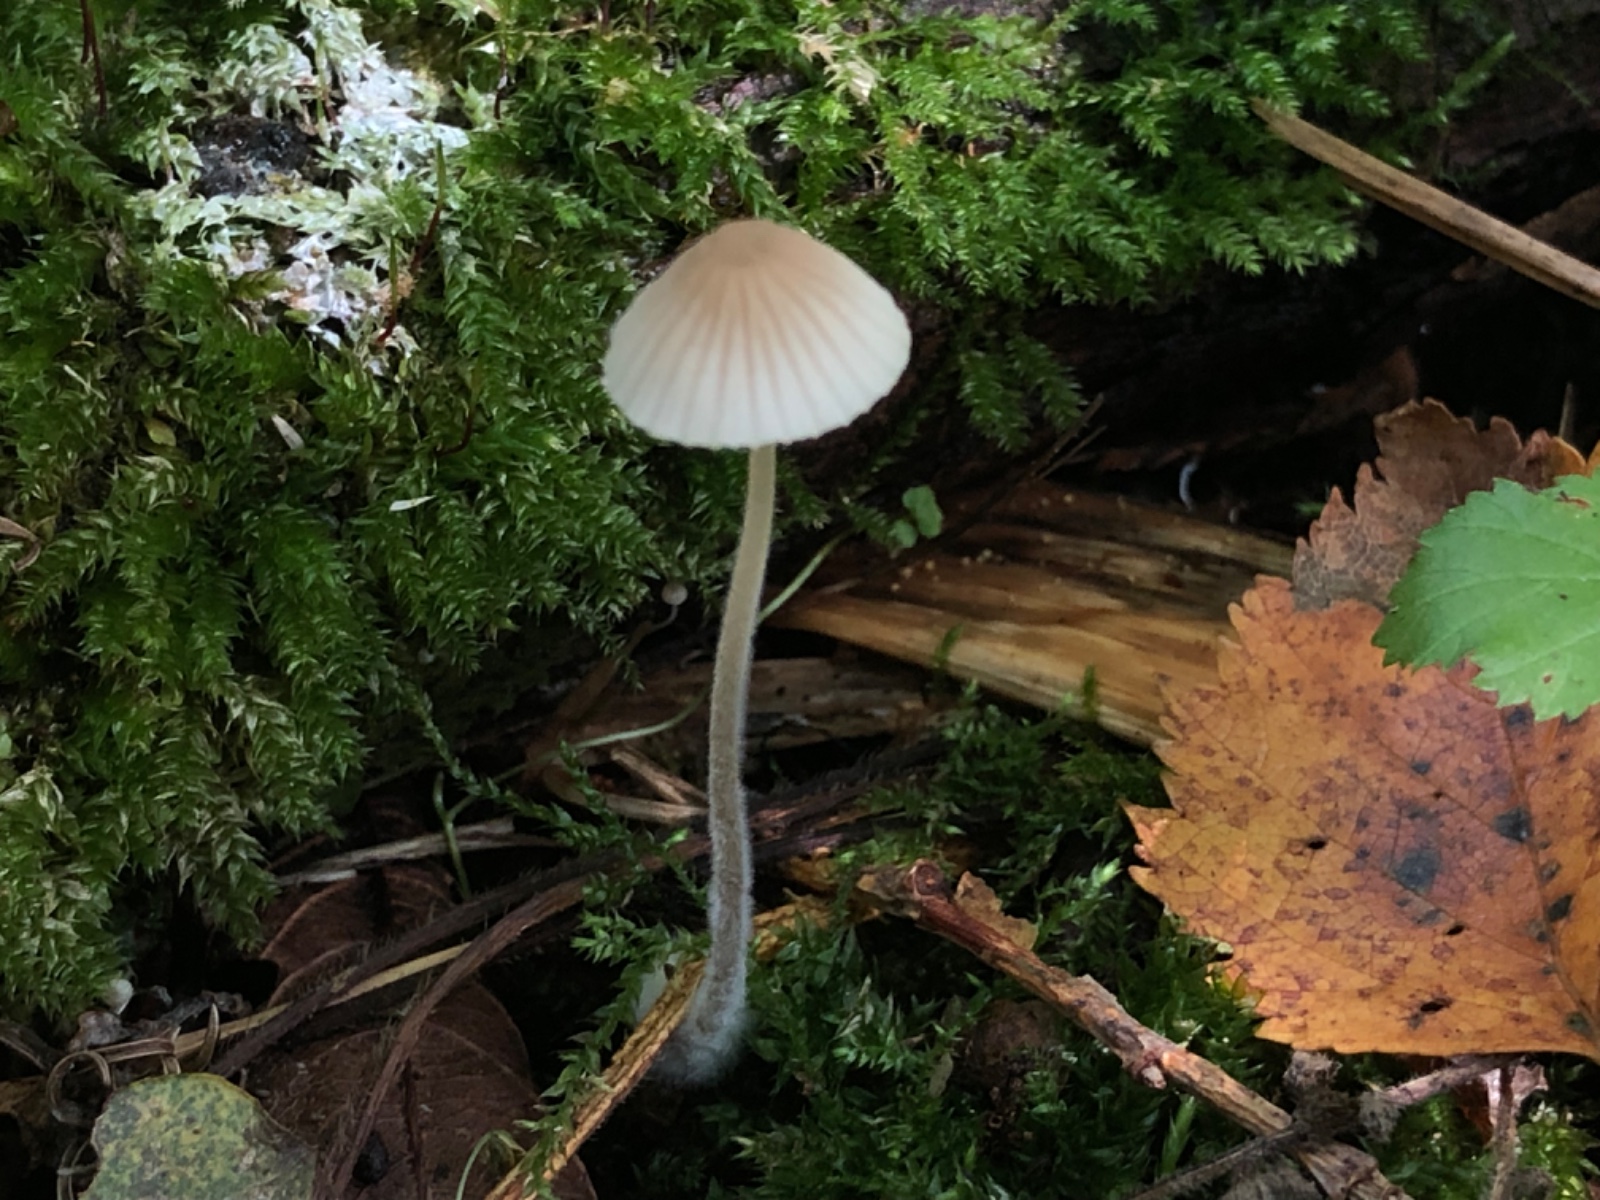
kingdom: Fungi
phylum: Basidiomycota
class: Agaricomycetes
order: Agaricales
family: Mycenaceae
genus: Mycena
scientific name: Mycena citrinomarginata
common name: gulægget huesvamp
